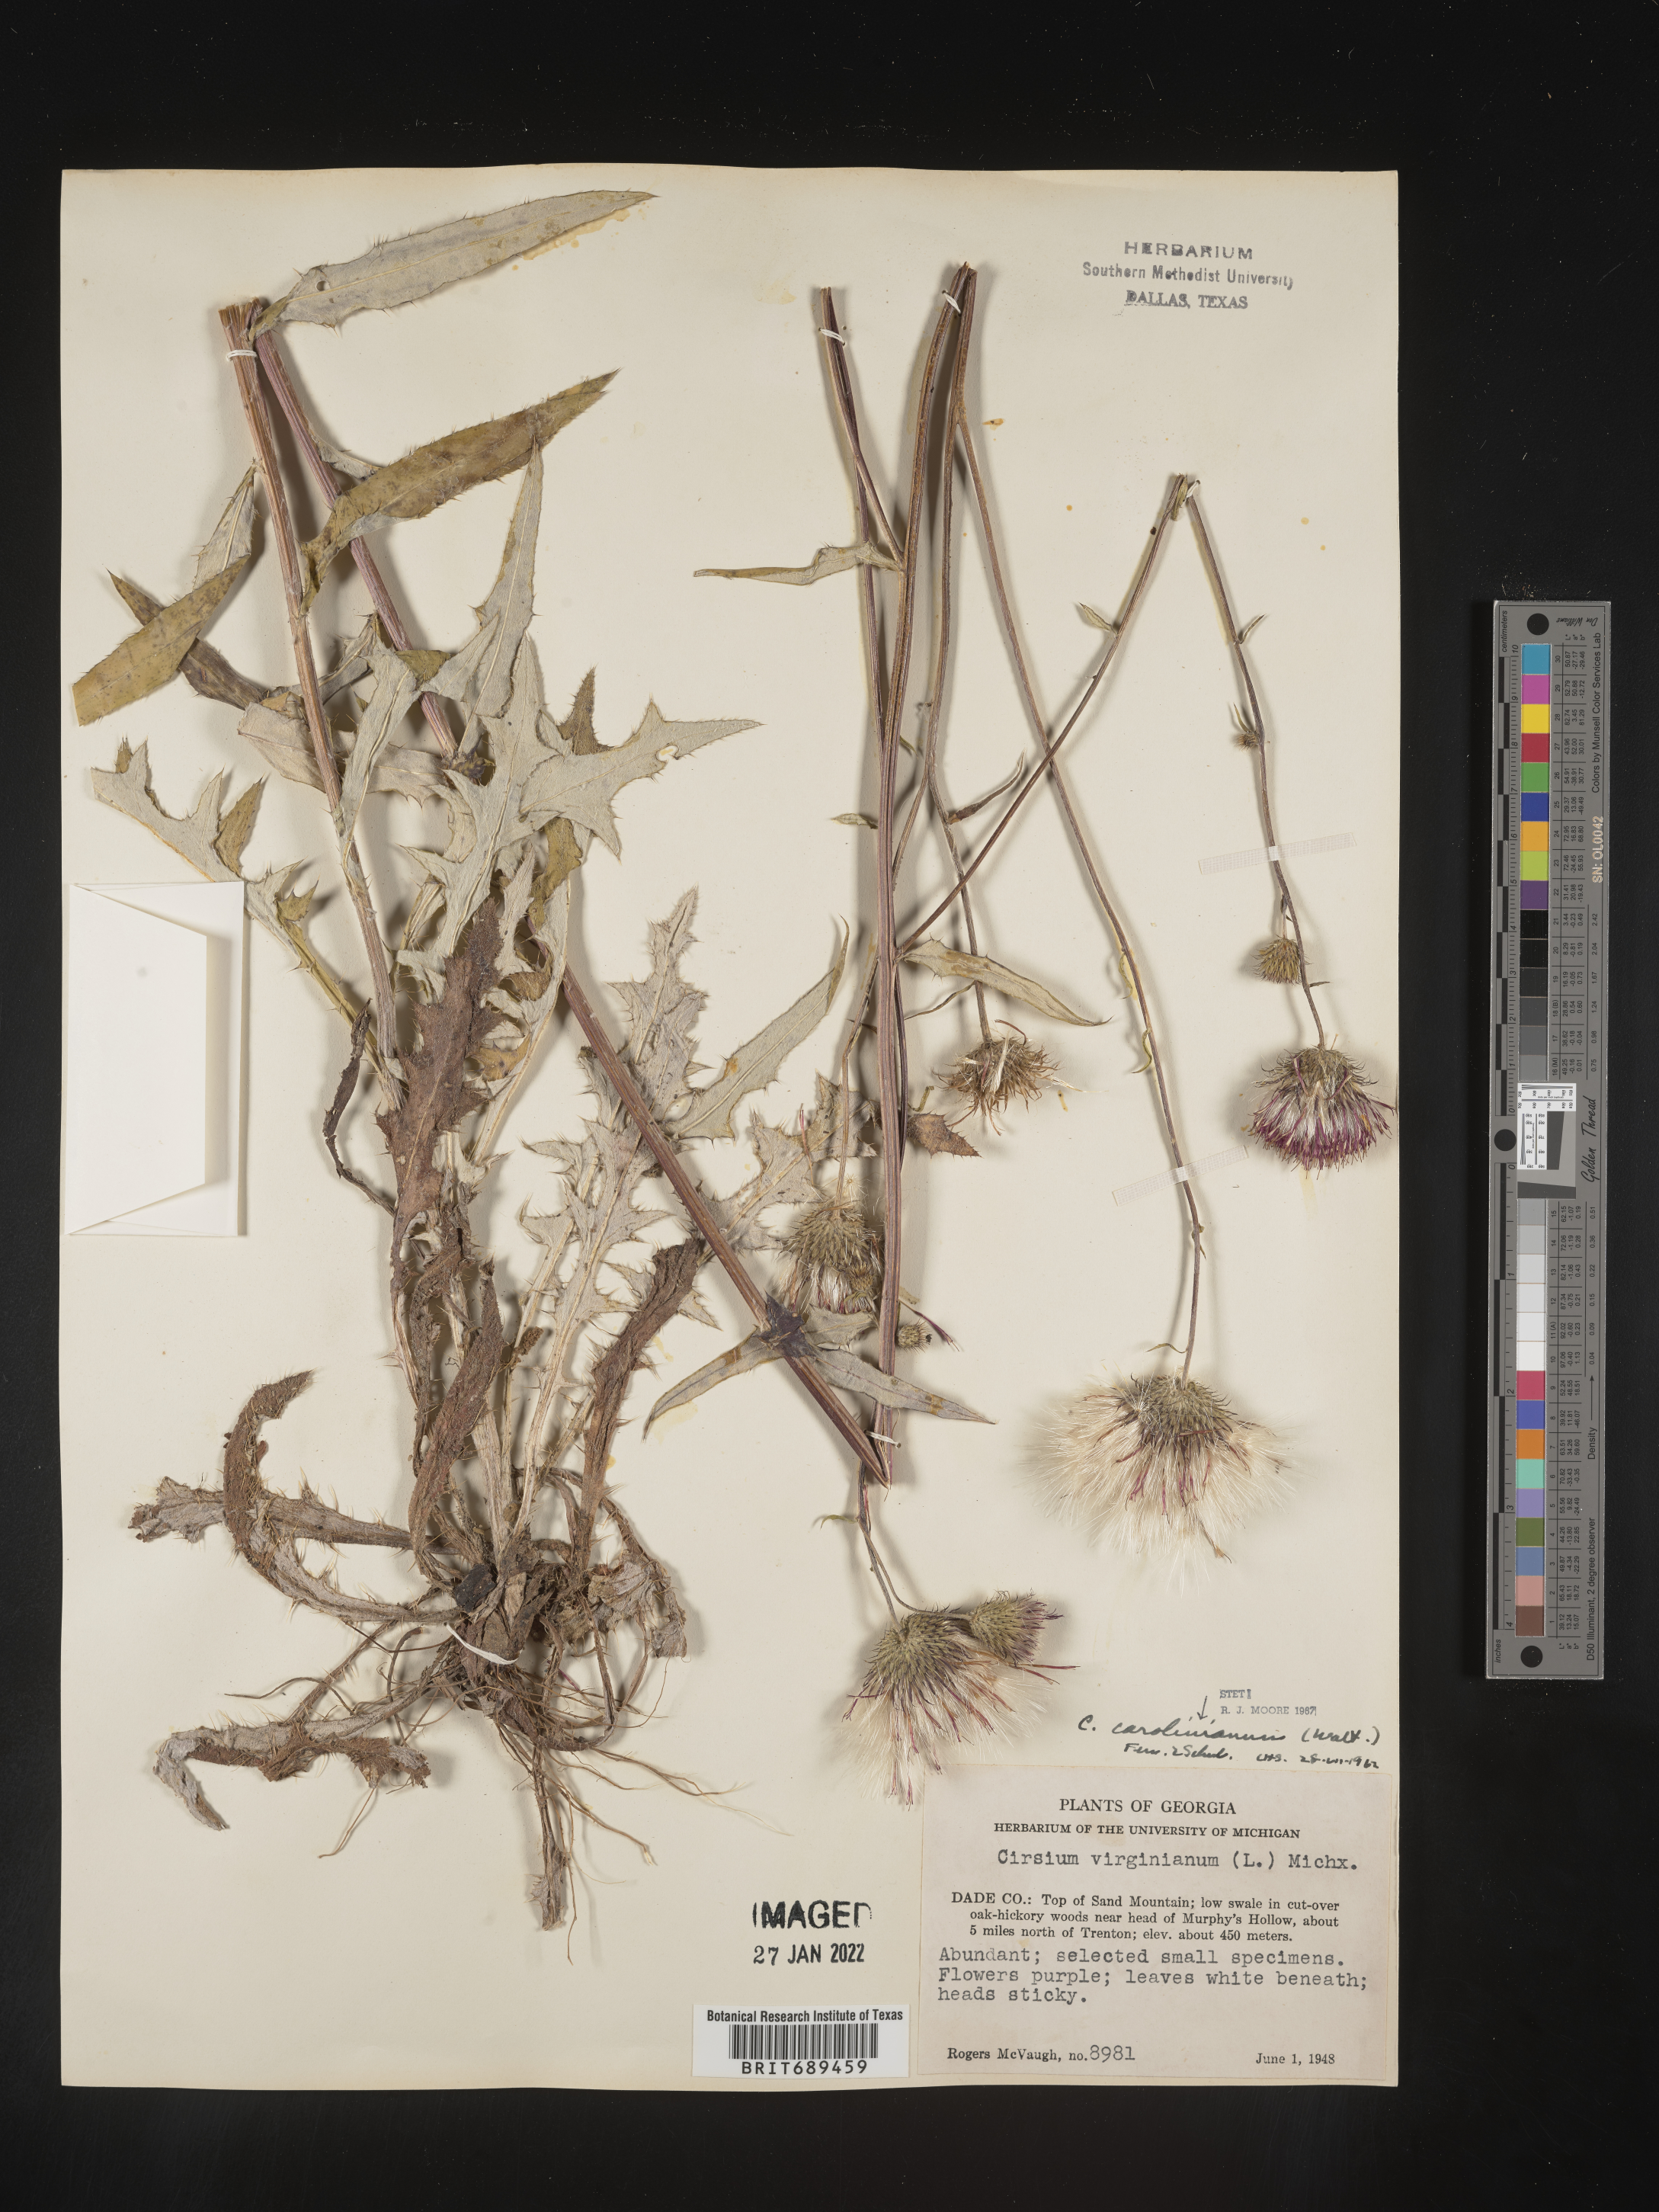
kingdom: Plantae
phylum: Tracheophyta
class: Magnoliopsida
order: Asterales
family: Asteraceae
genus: Cirsium
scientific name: Cirsium carolinianum
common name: Carolina thistle
